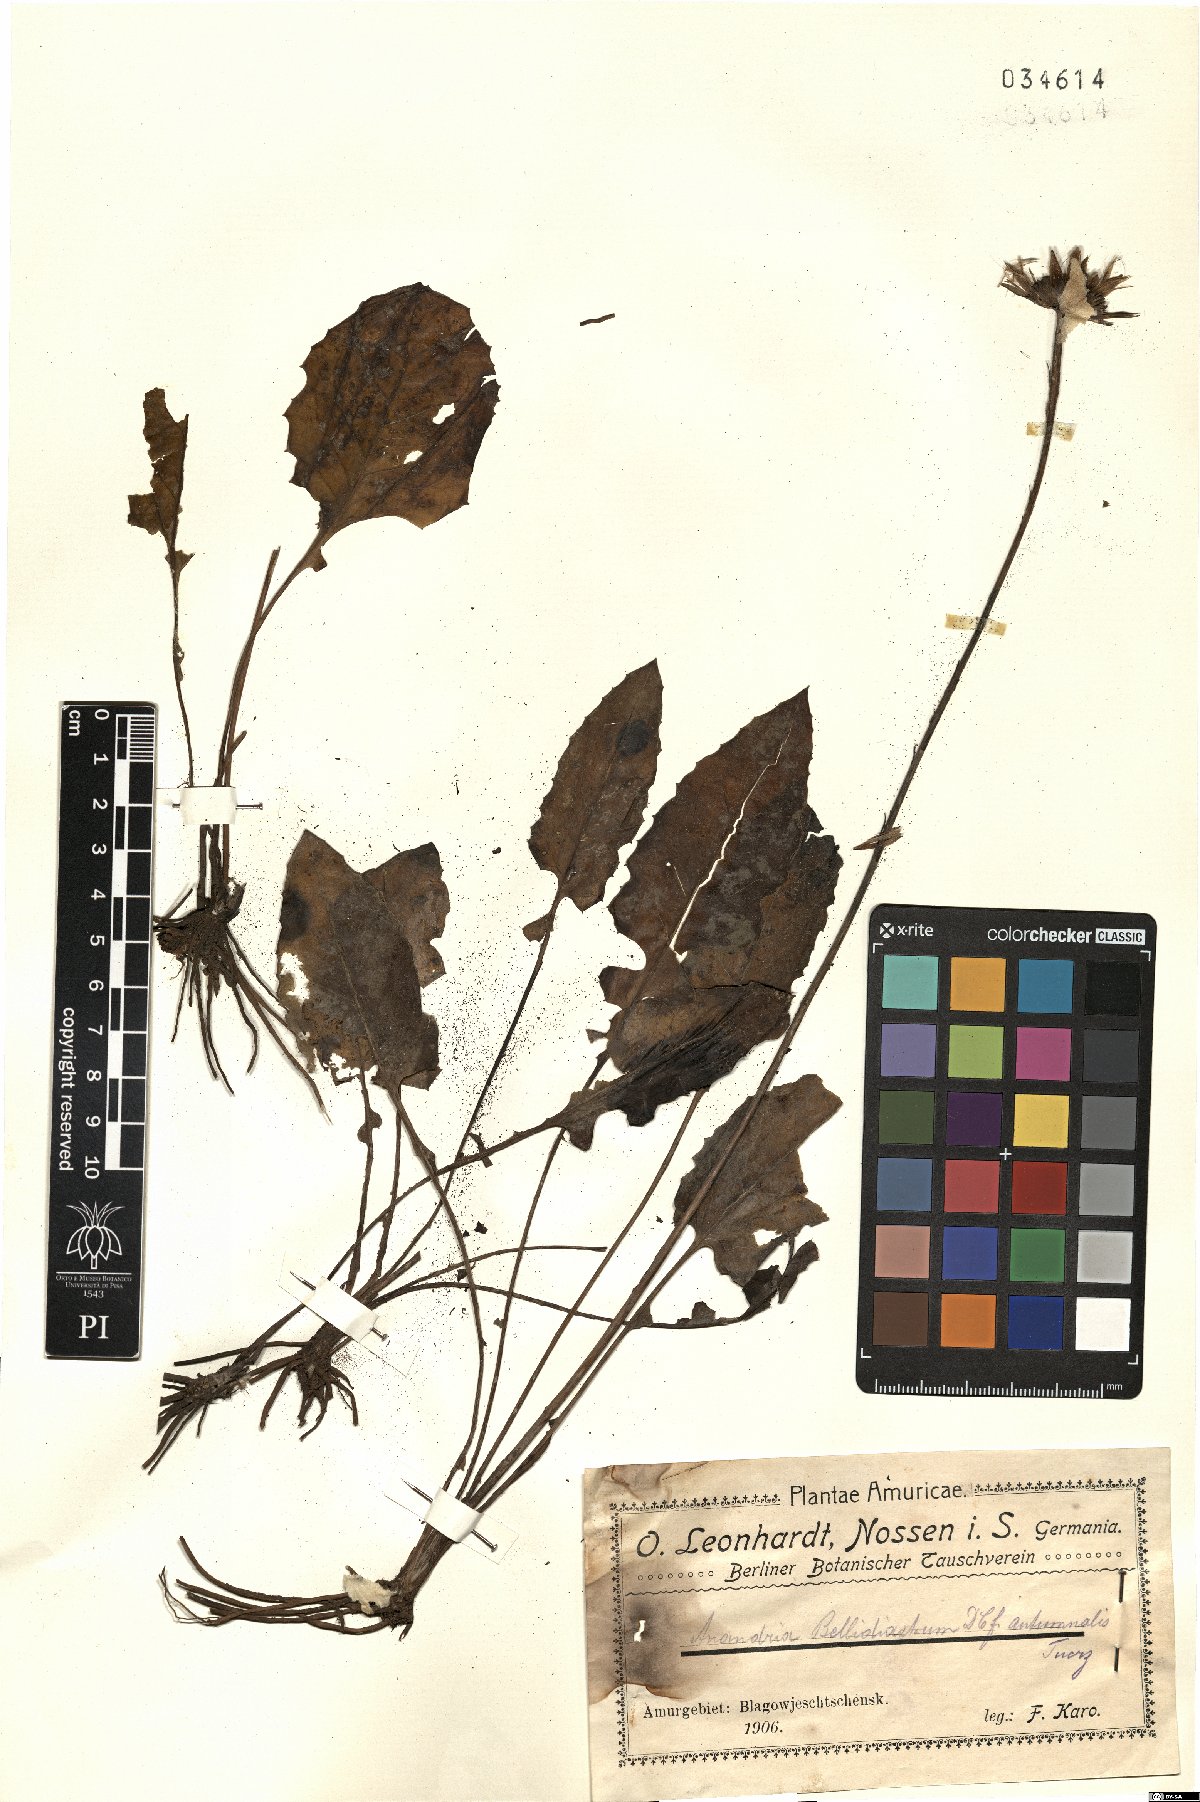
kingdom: Plantae
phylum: Tracheophyta
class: Magnoliopsida
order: Asterales
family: Asteraceae
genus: Leibnitzia
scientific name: Leibnitzia anandria
